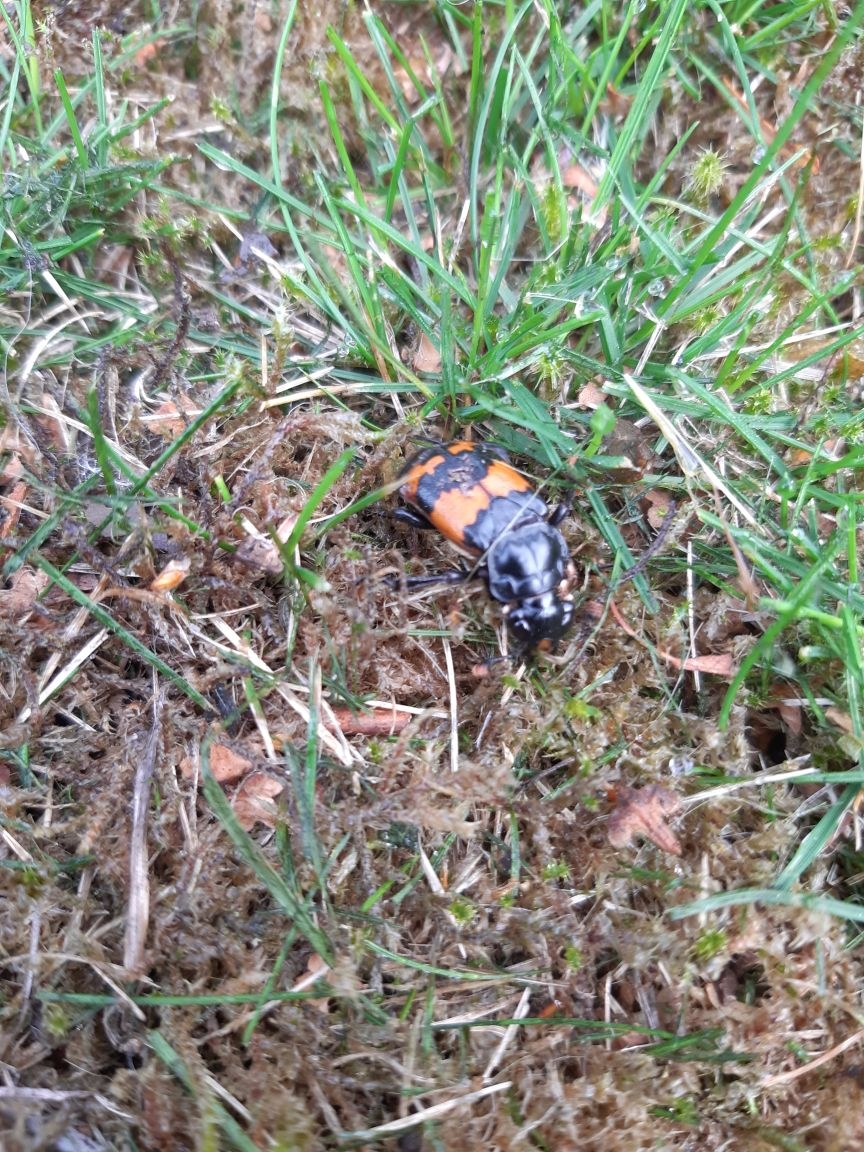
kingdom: Animalia
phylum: Arthropoda
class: Insecta
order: Coleoptera
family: Staphylinidae
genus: Nicrophorus
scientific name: Nicrophorus investigator
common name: Skovådselgraver
